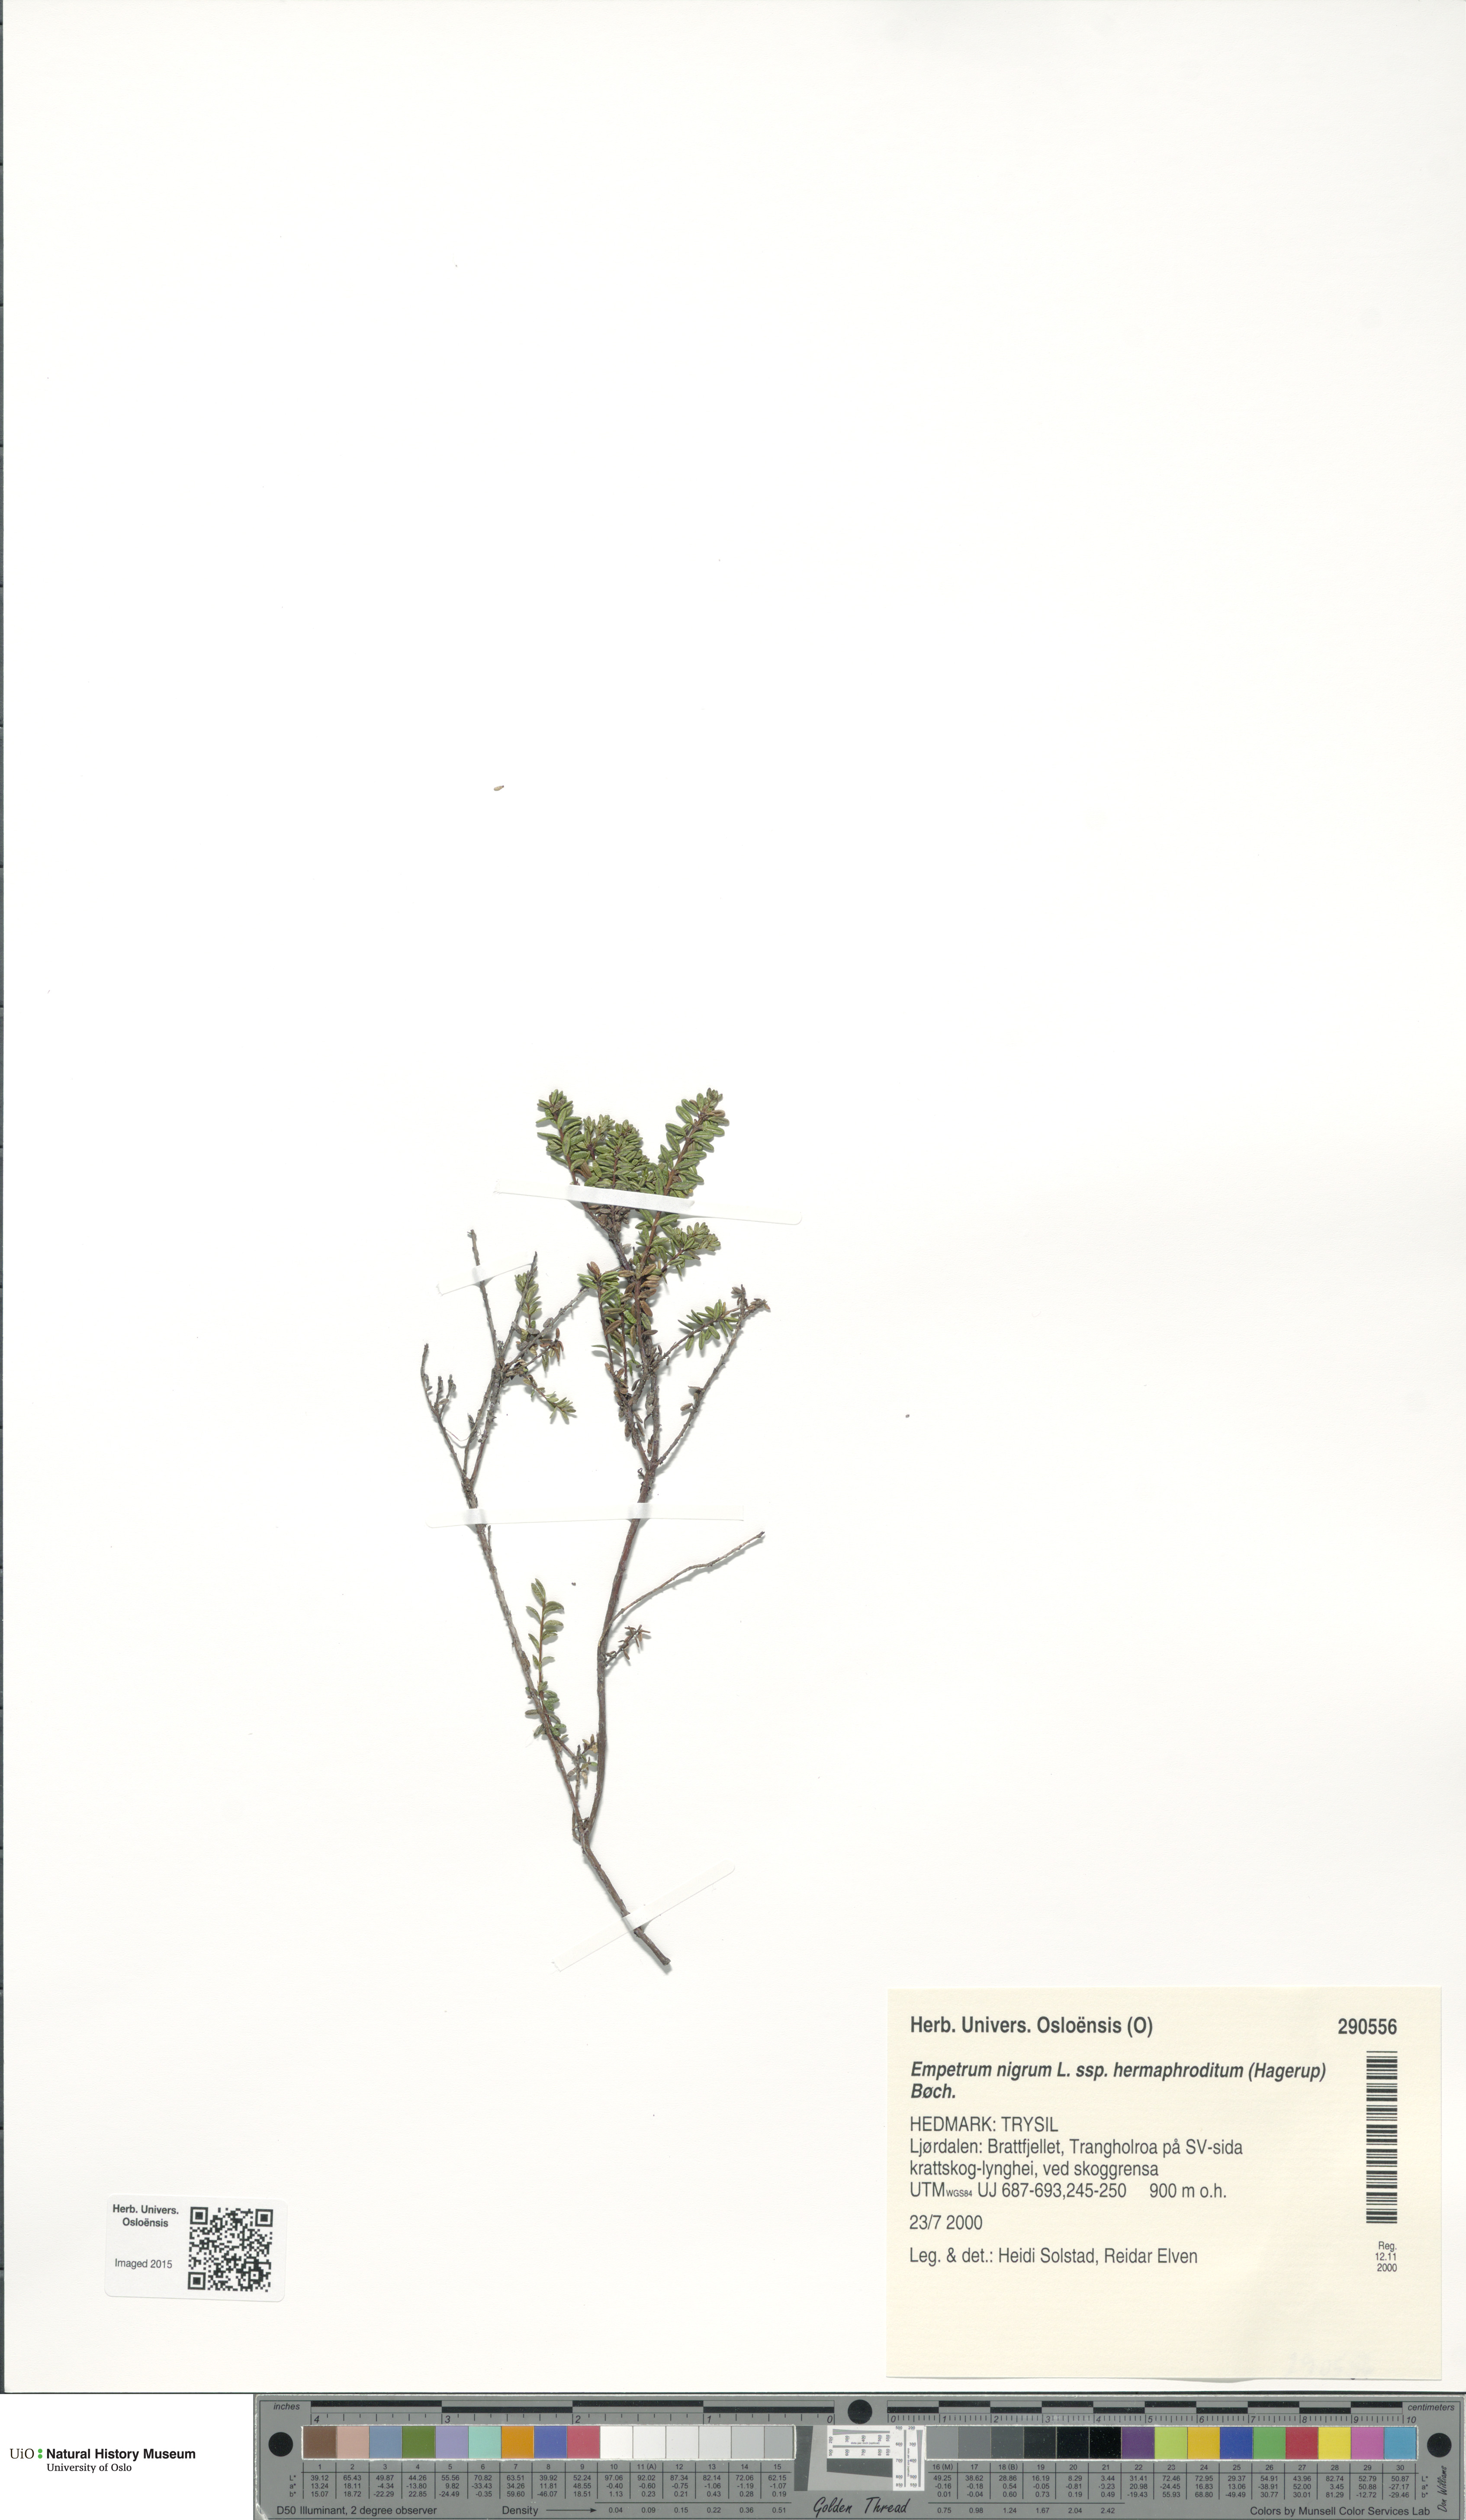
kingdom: Plantae
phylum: Tracheophyta
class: Magnoliopsida
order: Ericales
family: Ericaceae
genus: Empetrum
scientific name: Empetrum hermaphroditum
